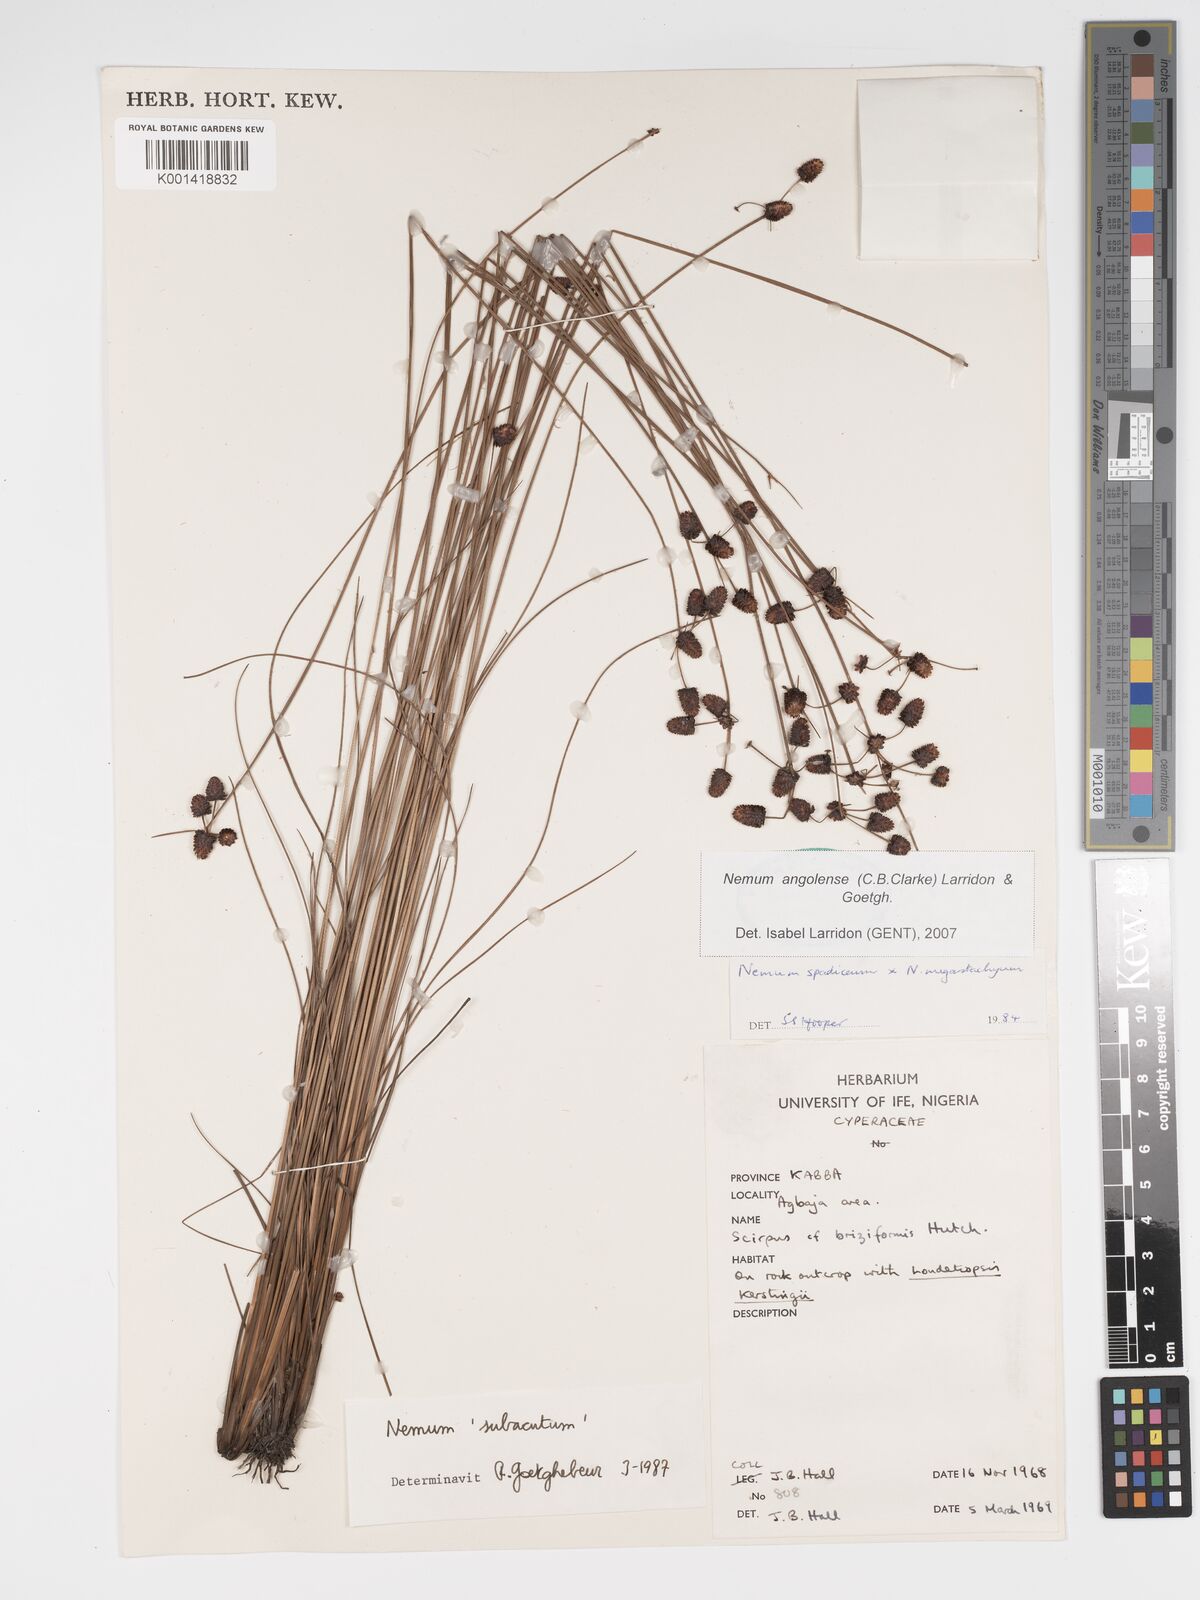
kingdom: Plantae
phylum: Tracheophyta
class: Liliopsida
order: Poales
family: Cyperaceae
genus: Bulbostylis
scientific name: Bulbostylis angolensis
